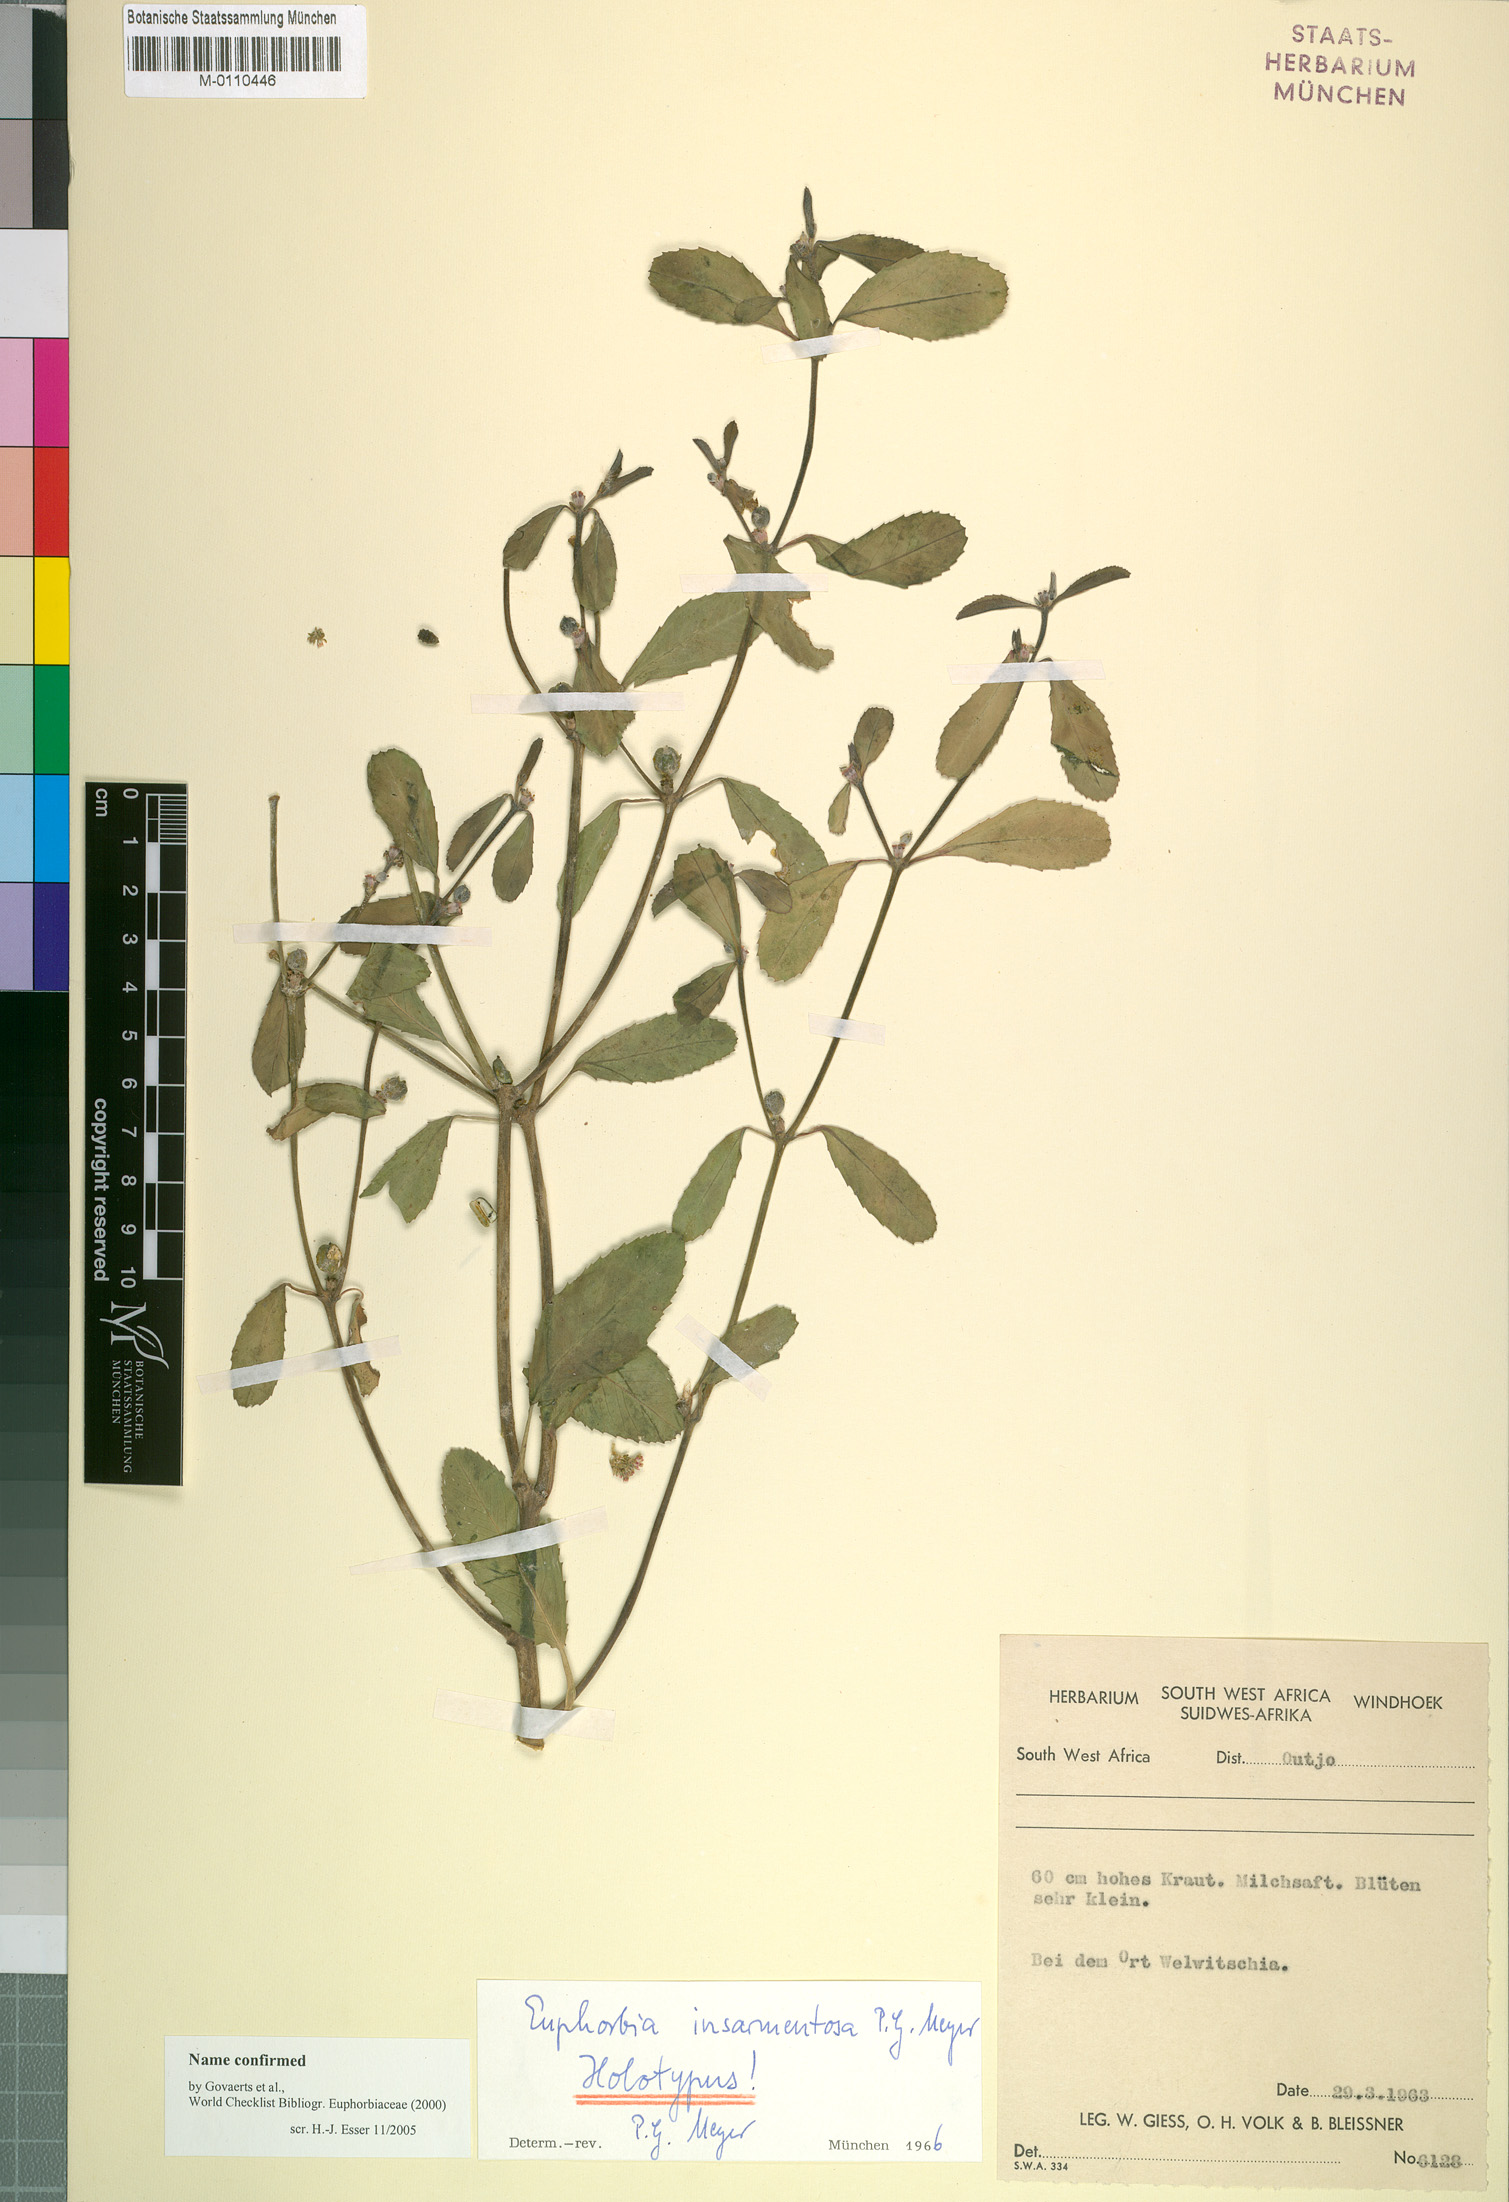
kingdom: Plantae
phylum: Tracheophyta
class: Magnoliopsida
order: Malpighiales
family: Euphorbiaceae
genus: Euphorbia
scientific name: Euphorbia insarmentosa
